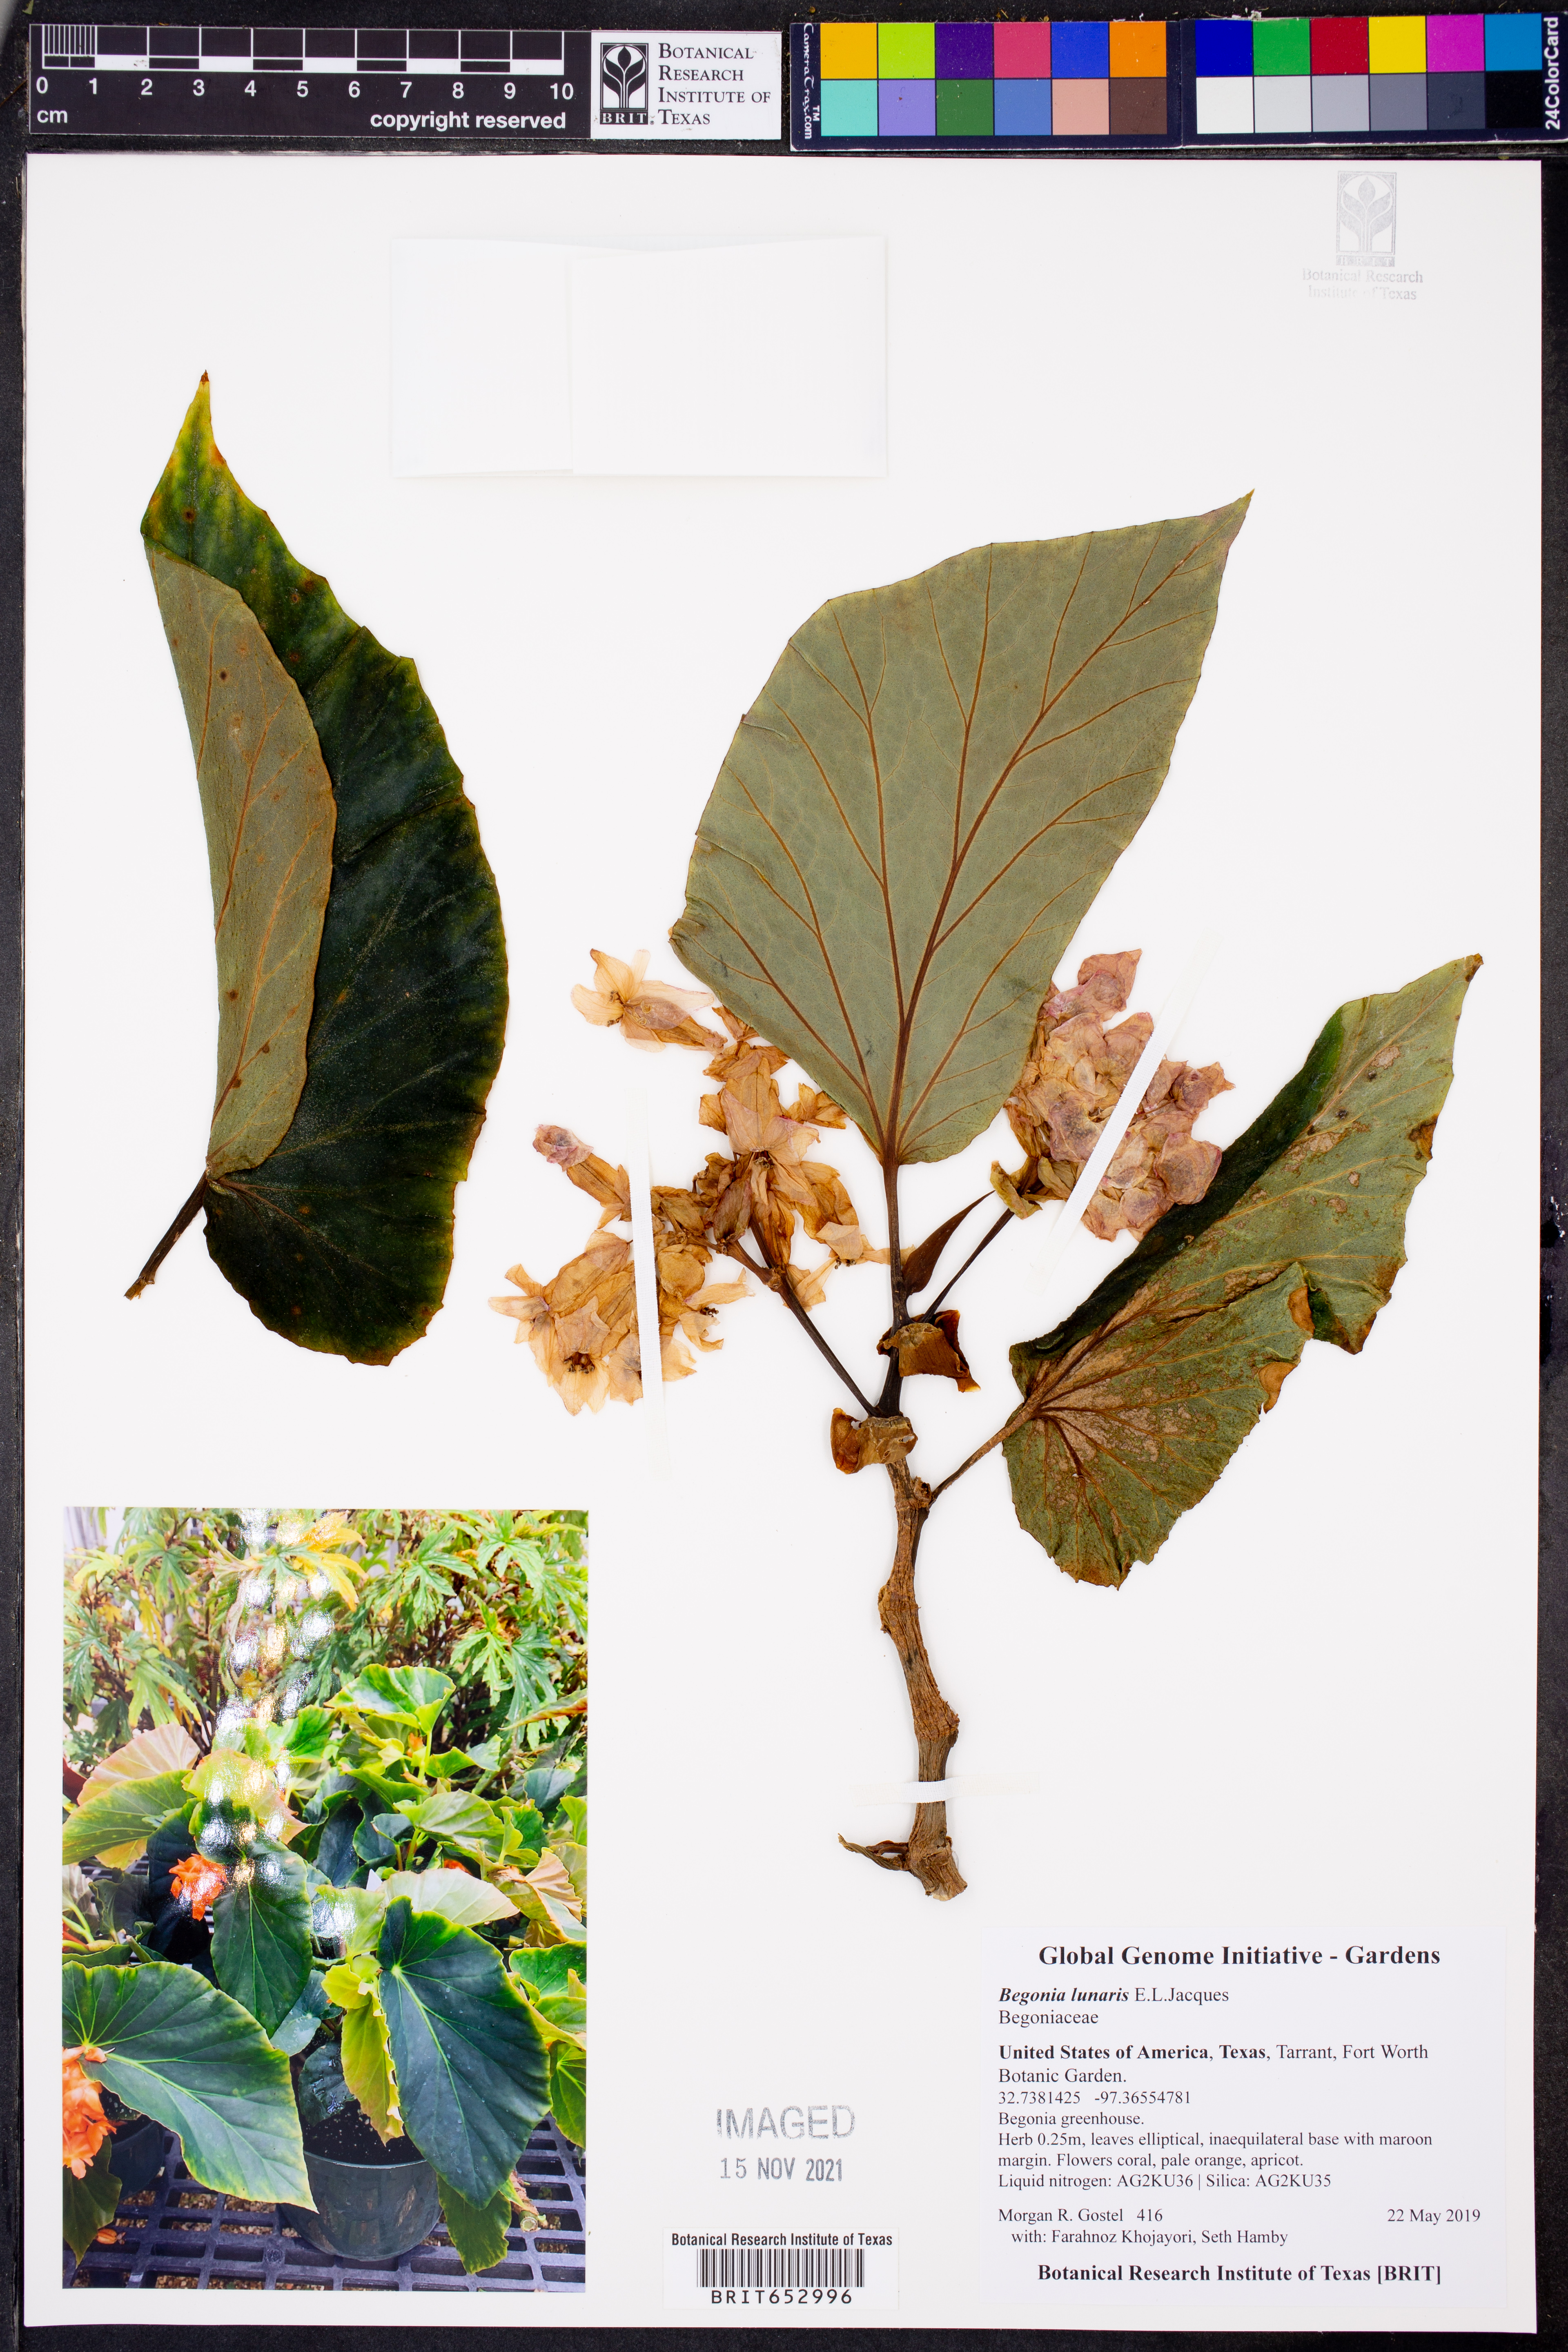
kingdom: Plantae
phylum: Tracheophyta
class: Magnoliopsida
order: Cucurbitales
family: Begoniaceae
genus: Begonia
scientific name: Begonia dichroa
